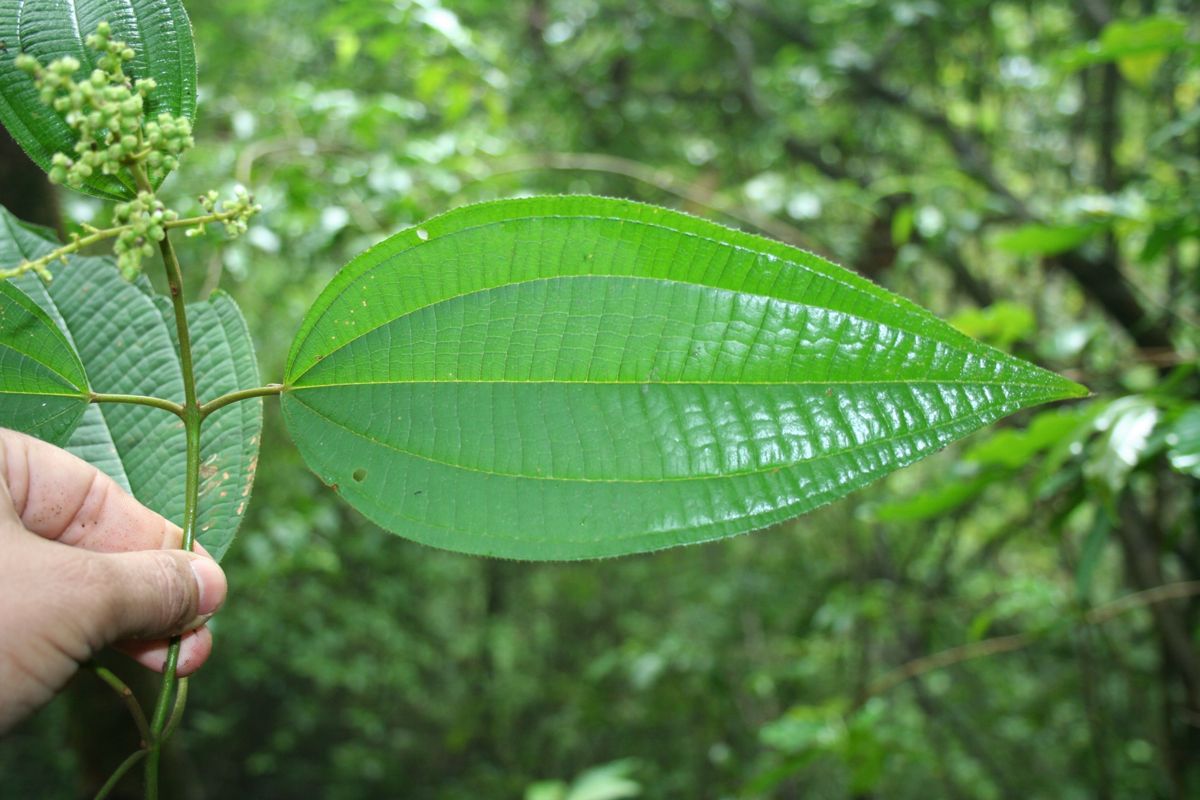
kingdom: Plantae
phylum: Tracheophyta
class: Magnoliopsida
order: Myrtales
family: Melastomataceae
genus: Miconia
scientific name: Miconia sylvatica
